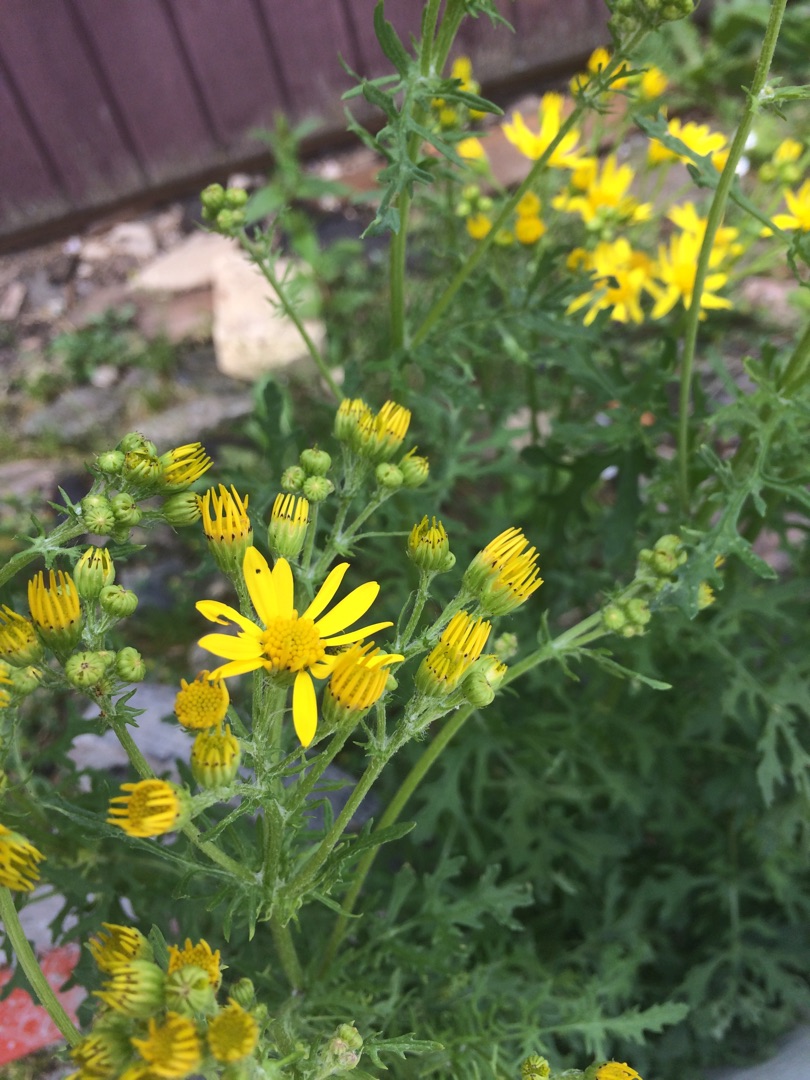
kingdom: Plantae
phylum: Tracheophyta
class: Magnoliopsida
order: Asterales
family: Asteraceae
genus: Jacobaea
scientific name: Jacobaea vulgaris
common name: Eng-brandbæger
